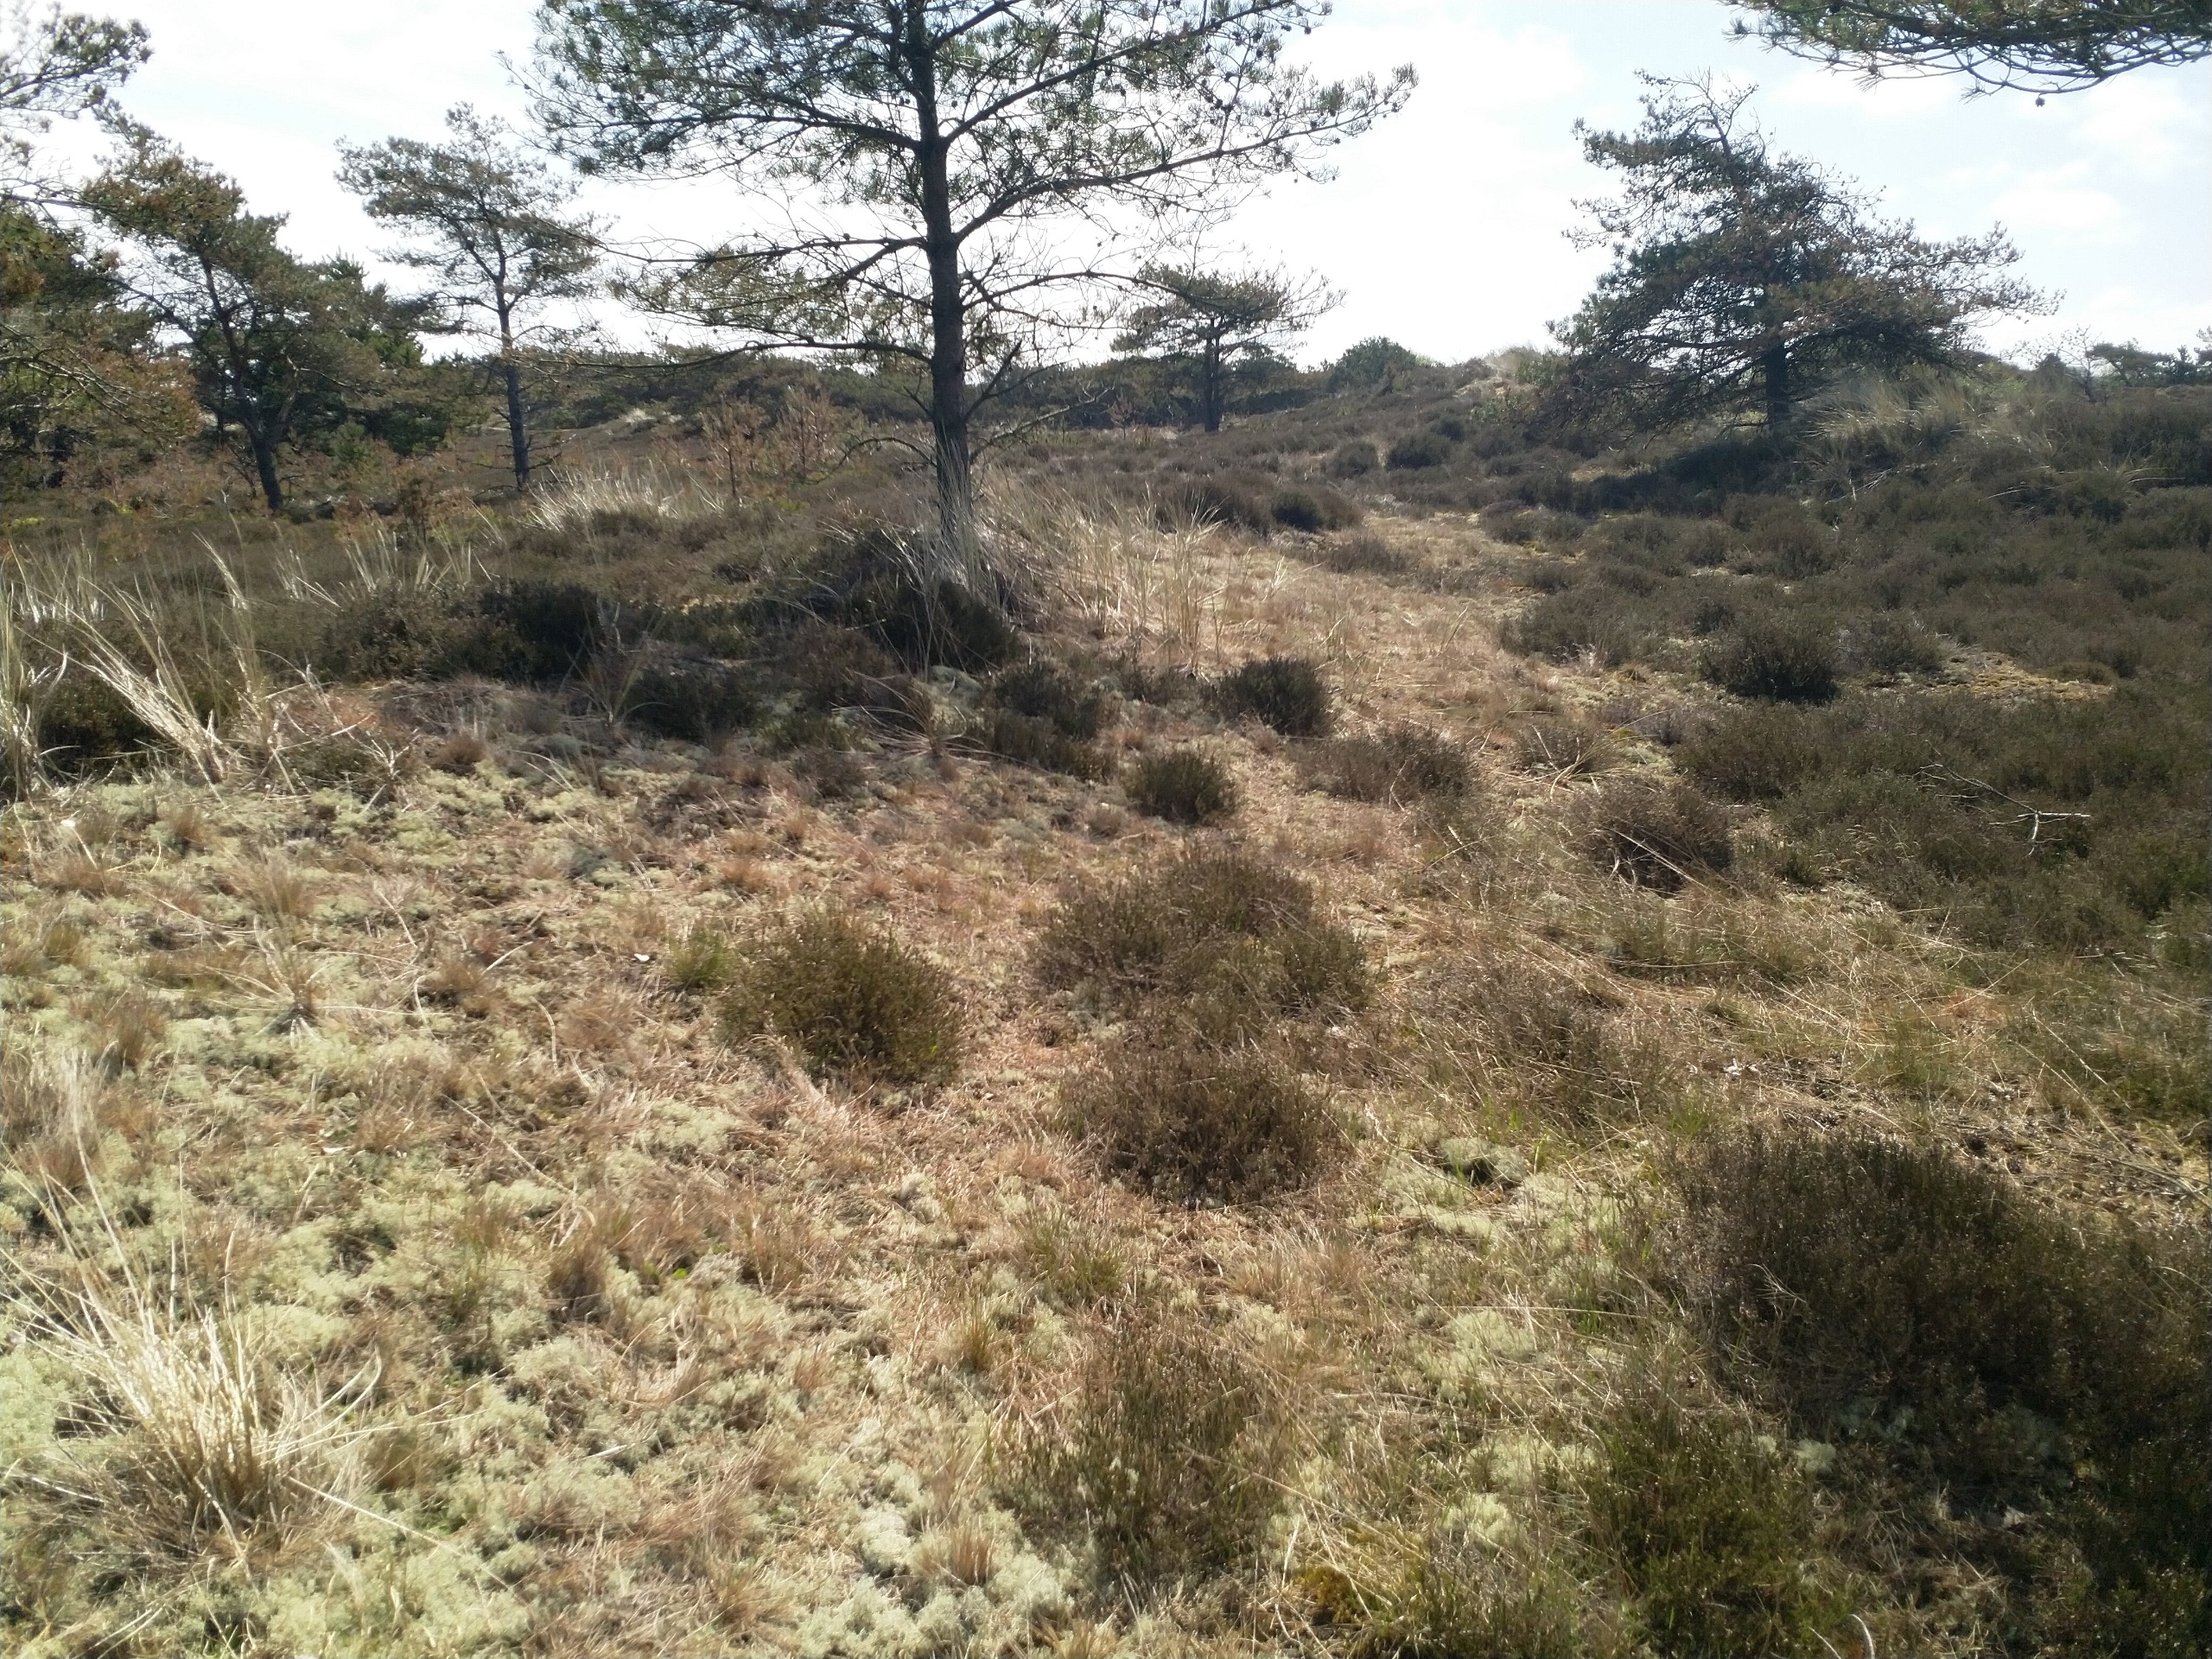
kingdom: Fungi
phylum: Ascomycota
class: Lecanoromycetes
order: Lecanorales
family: Cladoniaceae
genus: Cladonia
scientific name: Cladonia floerkeana
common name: Lakrød bægerlav
